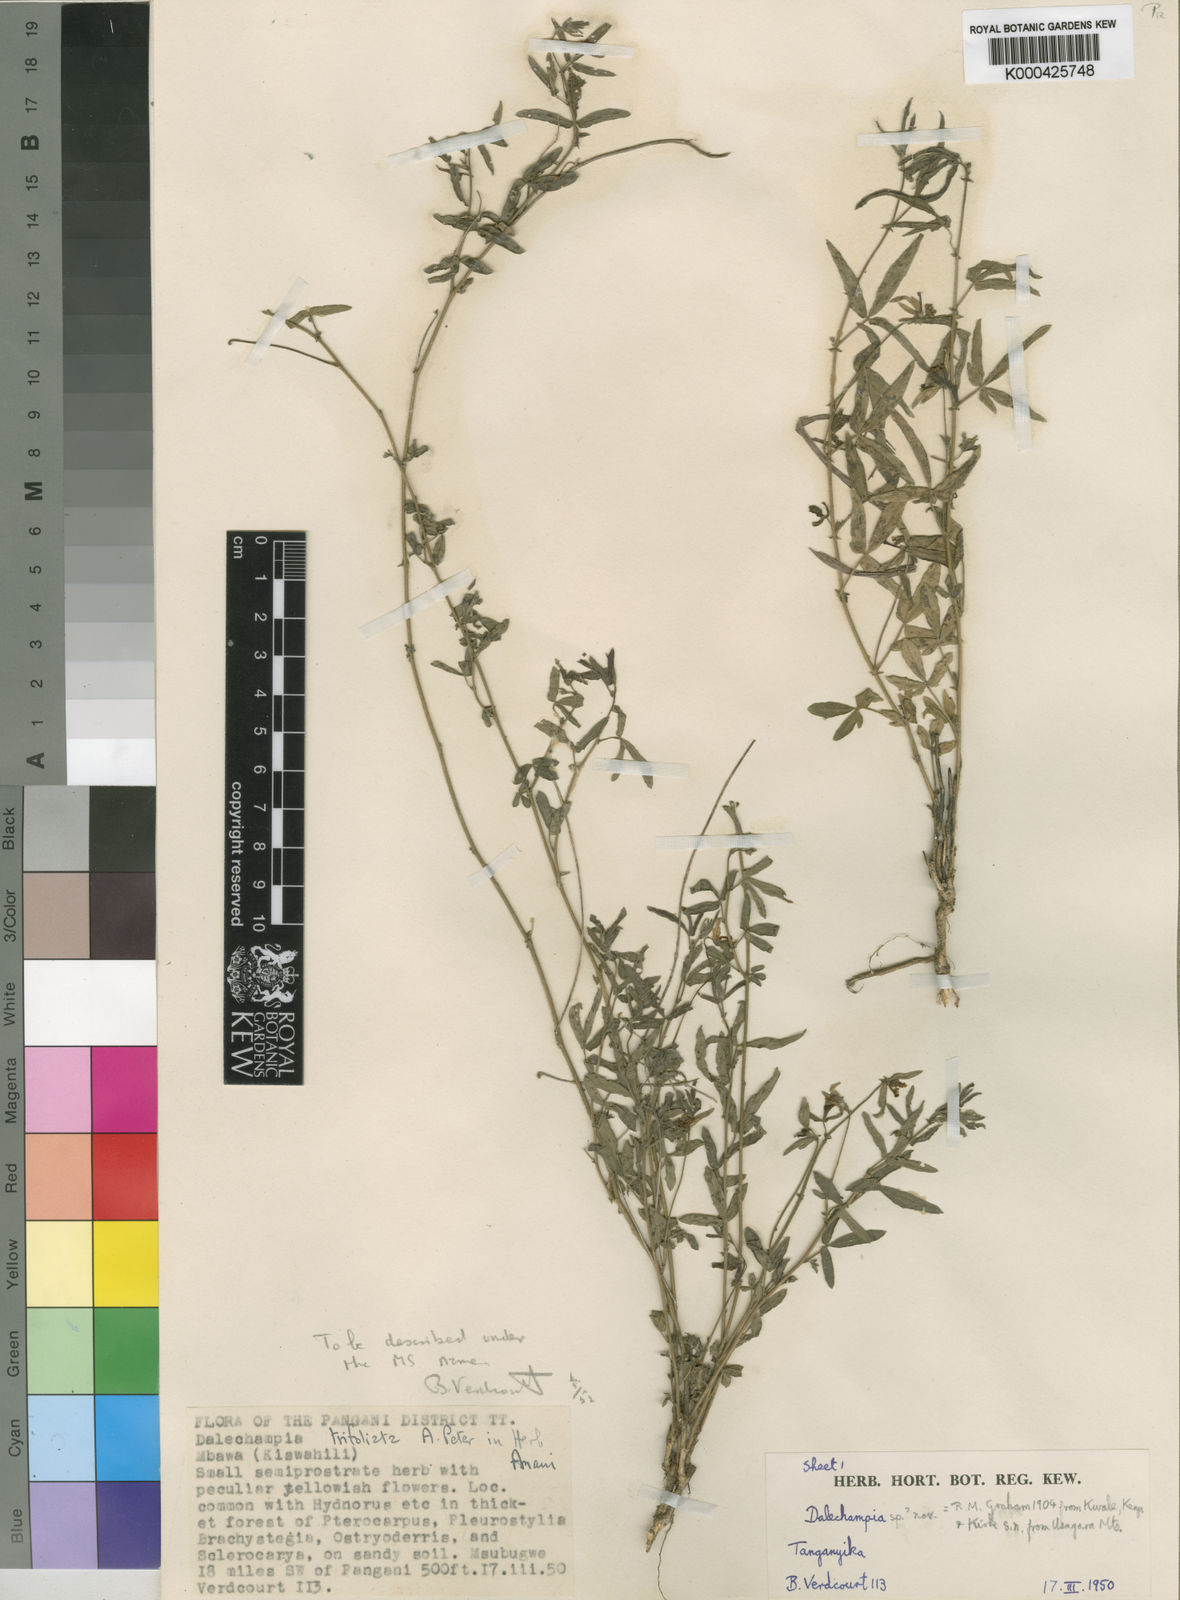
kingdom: Plantae
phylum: Tracheophyta
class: Magnoliopsida
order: Malpighiales
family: Euphorbiaceae
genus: Dalechampia
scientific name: Dalechampia trifoliata
